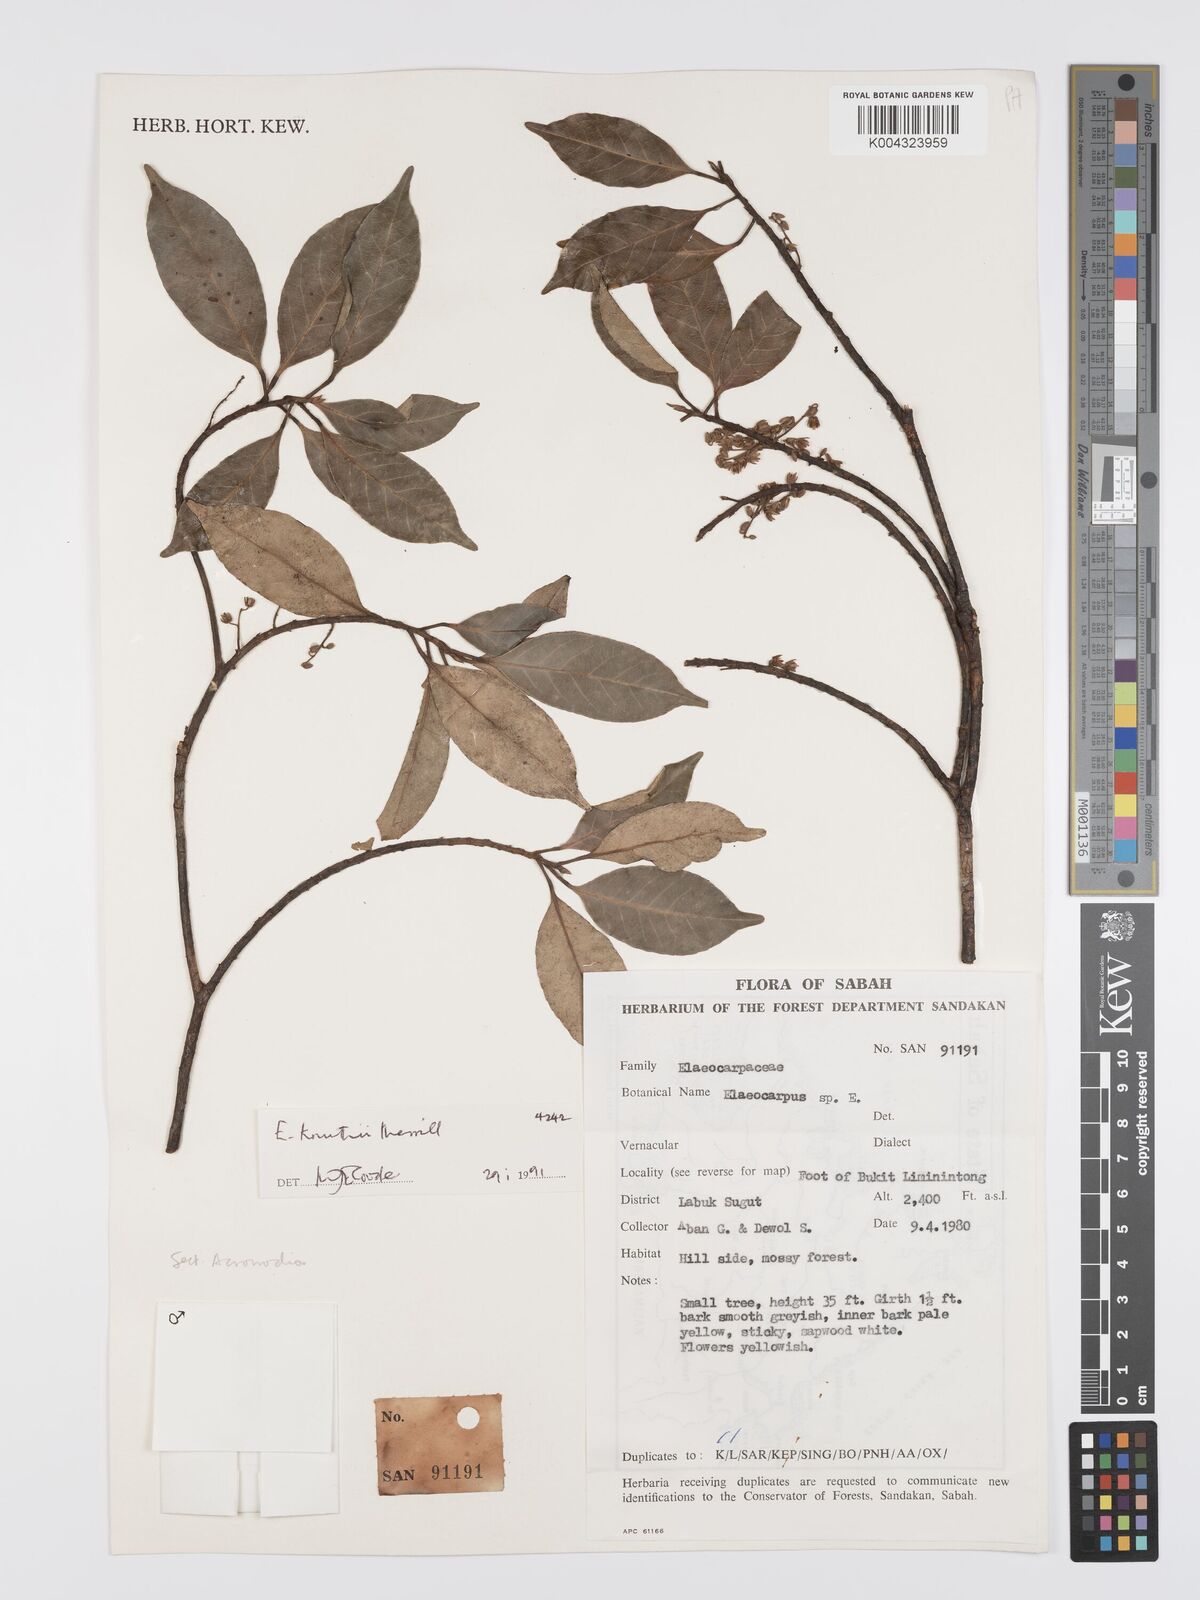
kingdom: Plantae
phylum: Tracheophyta
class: Magnoliopsida
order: Oxalidales
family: Elaeocarpaceae
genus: Elaeocarpus
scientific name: Elaeocarpus knuthii
